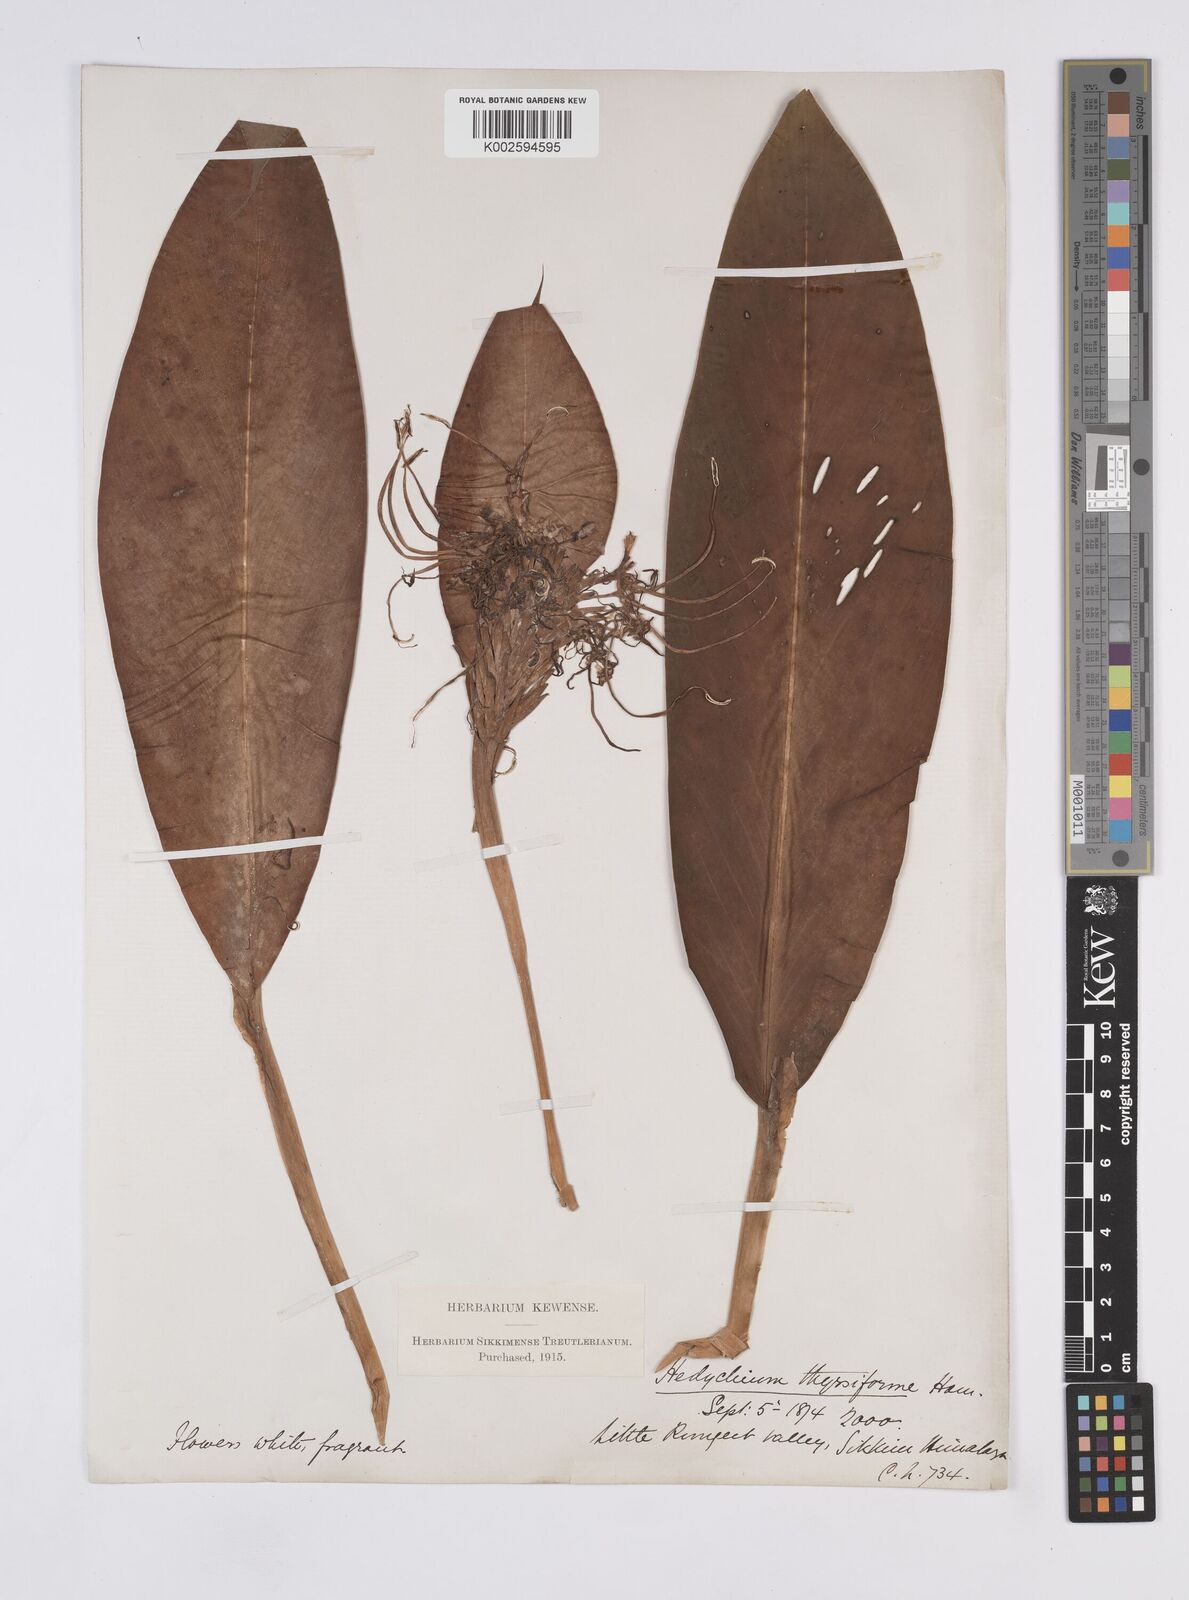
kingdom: Plantae
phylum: Tracheophyta
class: Liliopsida
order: Zingiberales
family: Zingiberaceae
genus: Hedychium
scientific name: Hedychium
